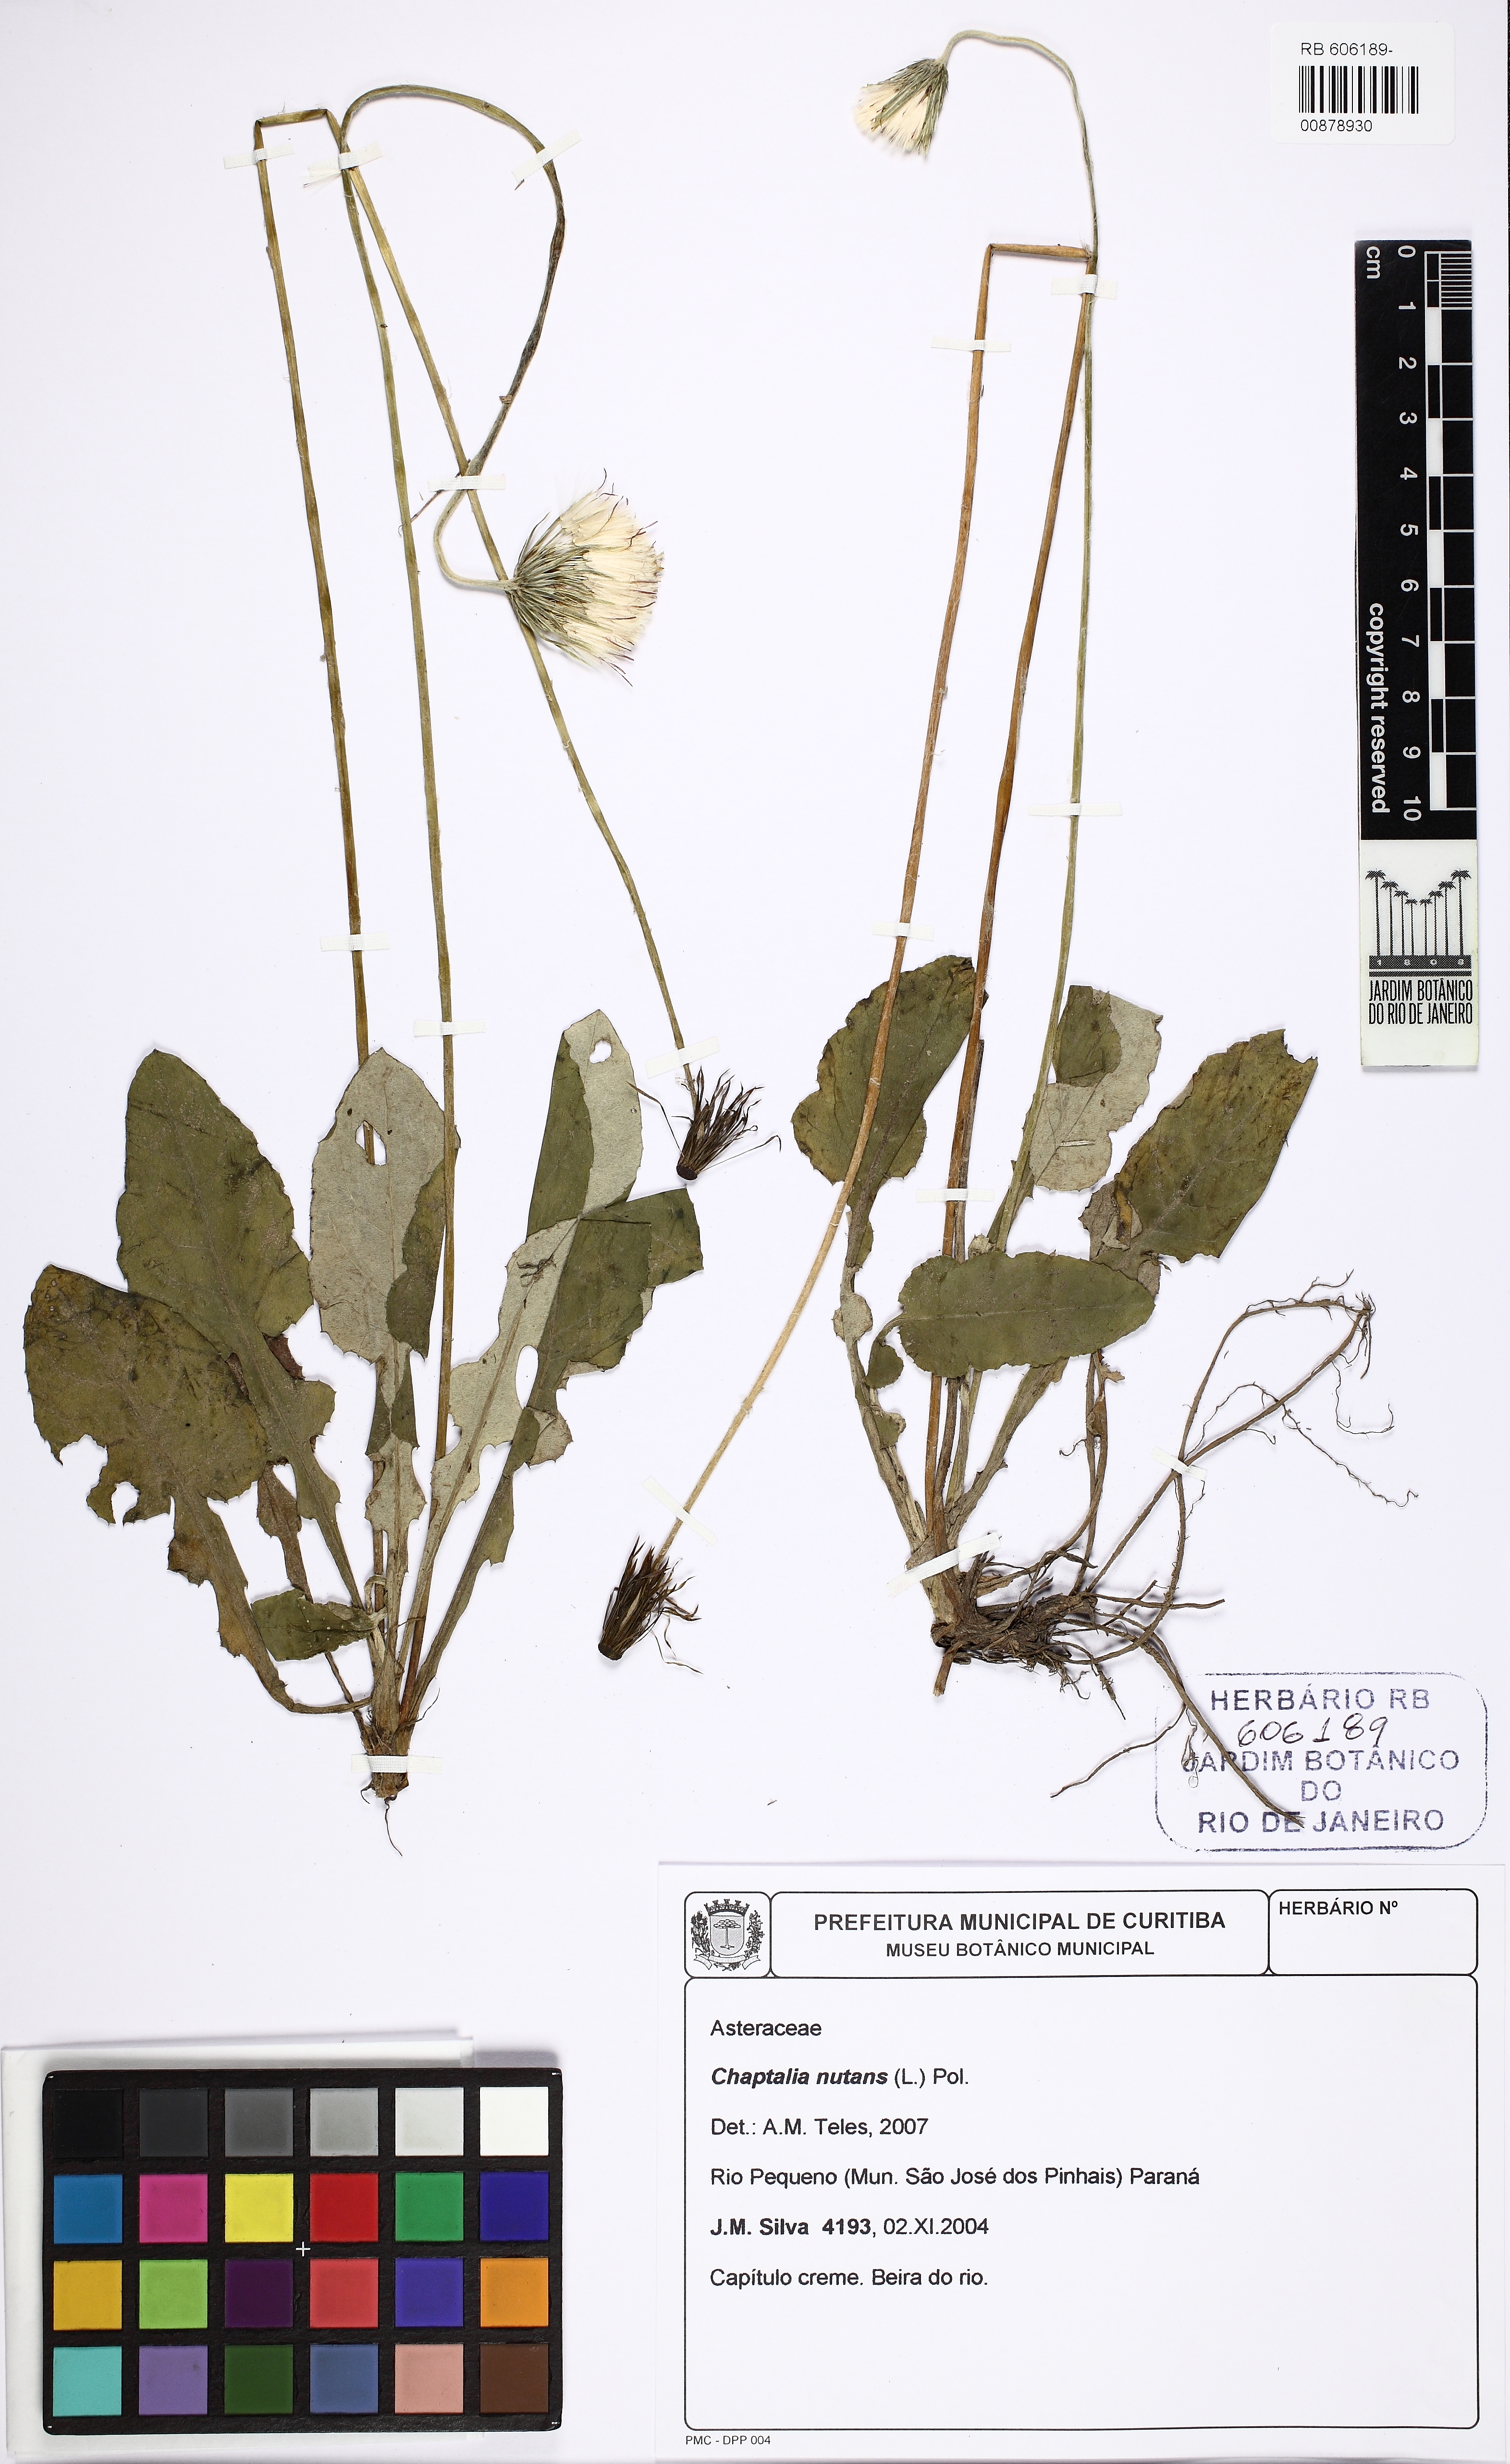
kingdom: Plantae
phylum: Tracheophyta
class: Magnoliopsida
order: Asterales
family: Asteraceae
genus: Chaptalia
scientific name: Chaptalia nutans
